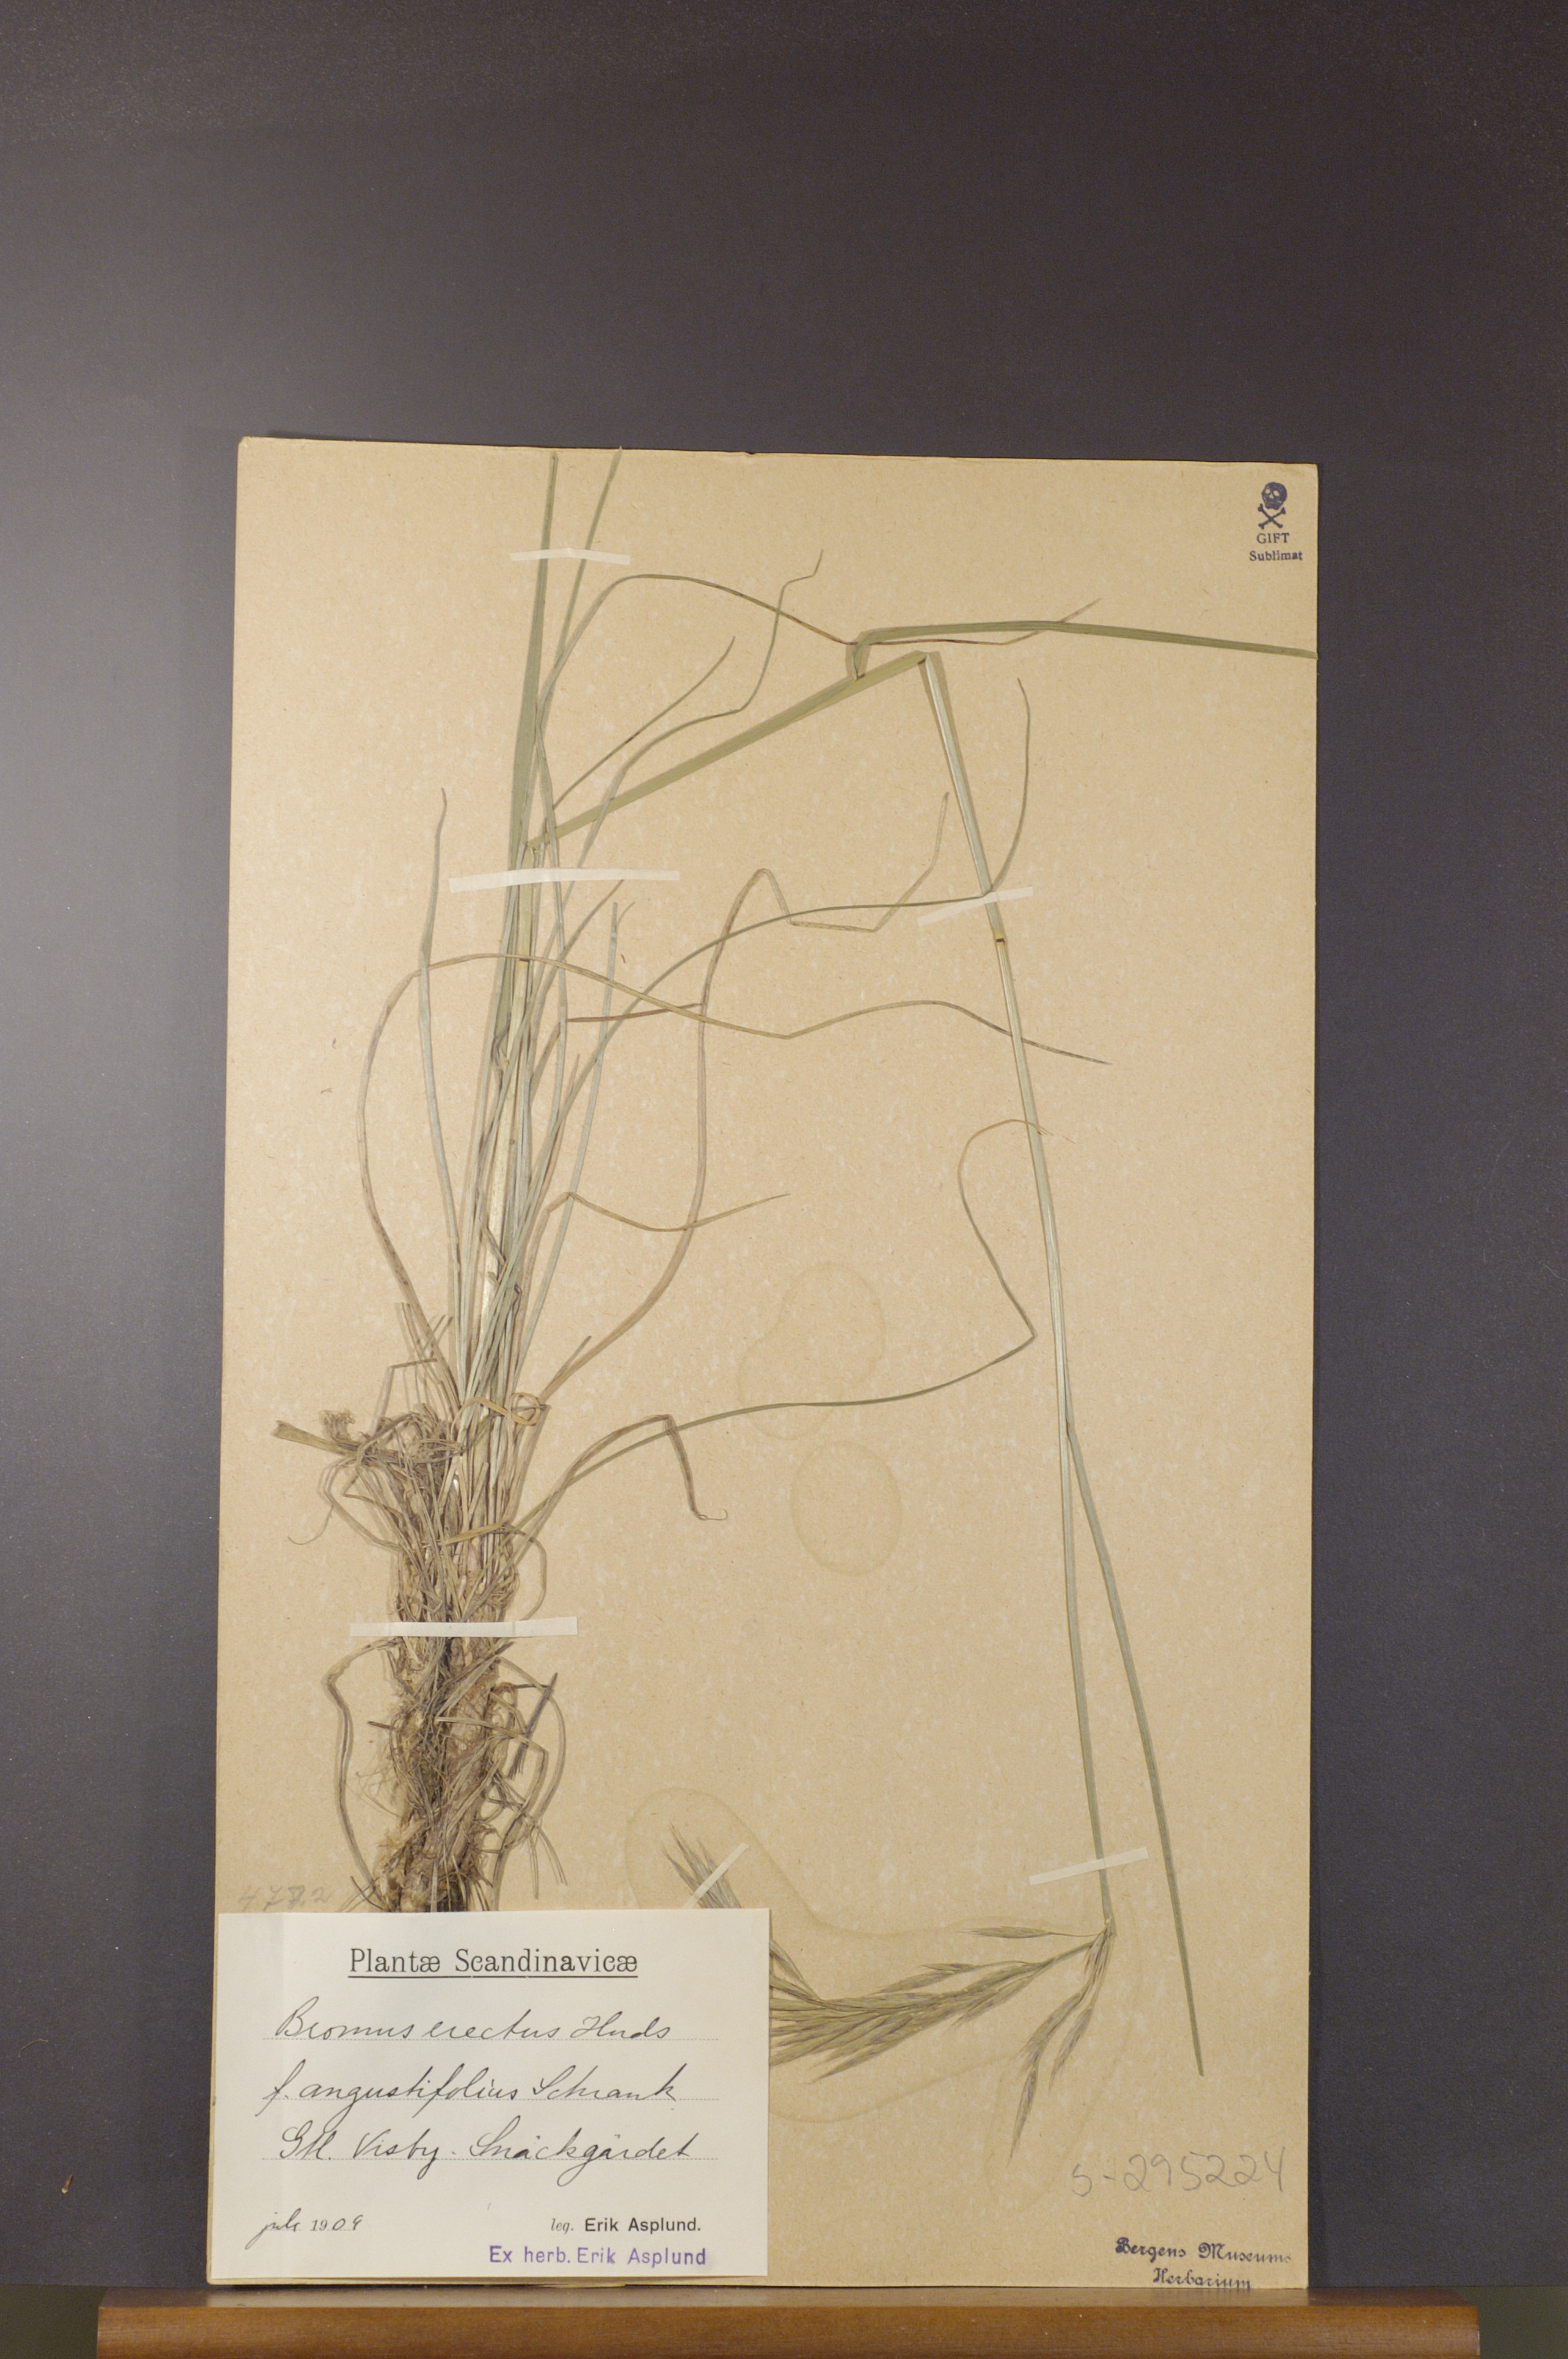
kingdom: Plantae
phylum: Tracheophyta
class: Liliopsida
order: Poales
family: Poaceae
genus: Bromus
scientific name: Bromus erectus
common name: Erect brome
